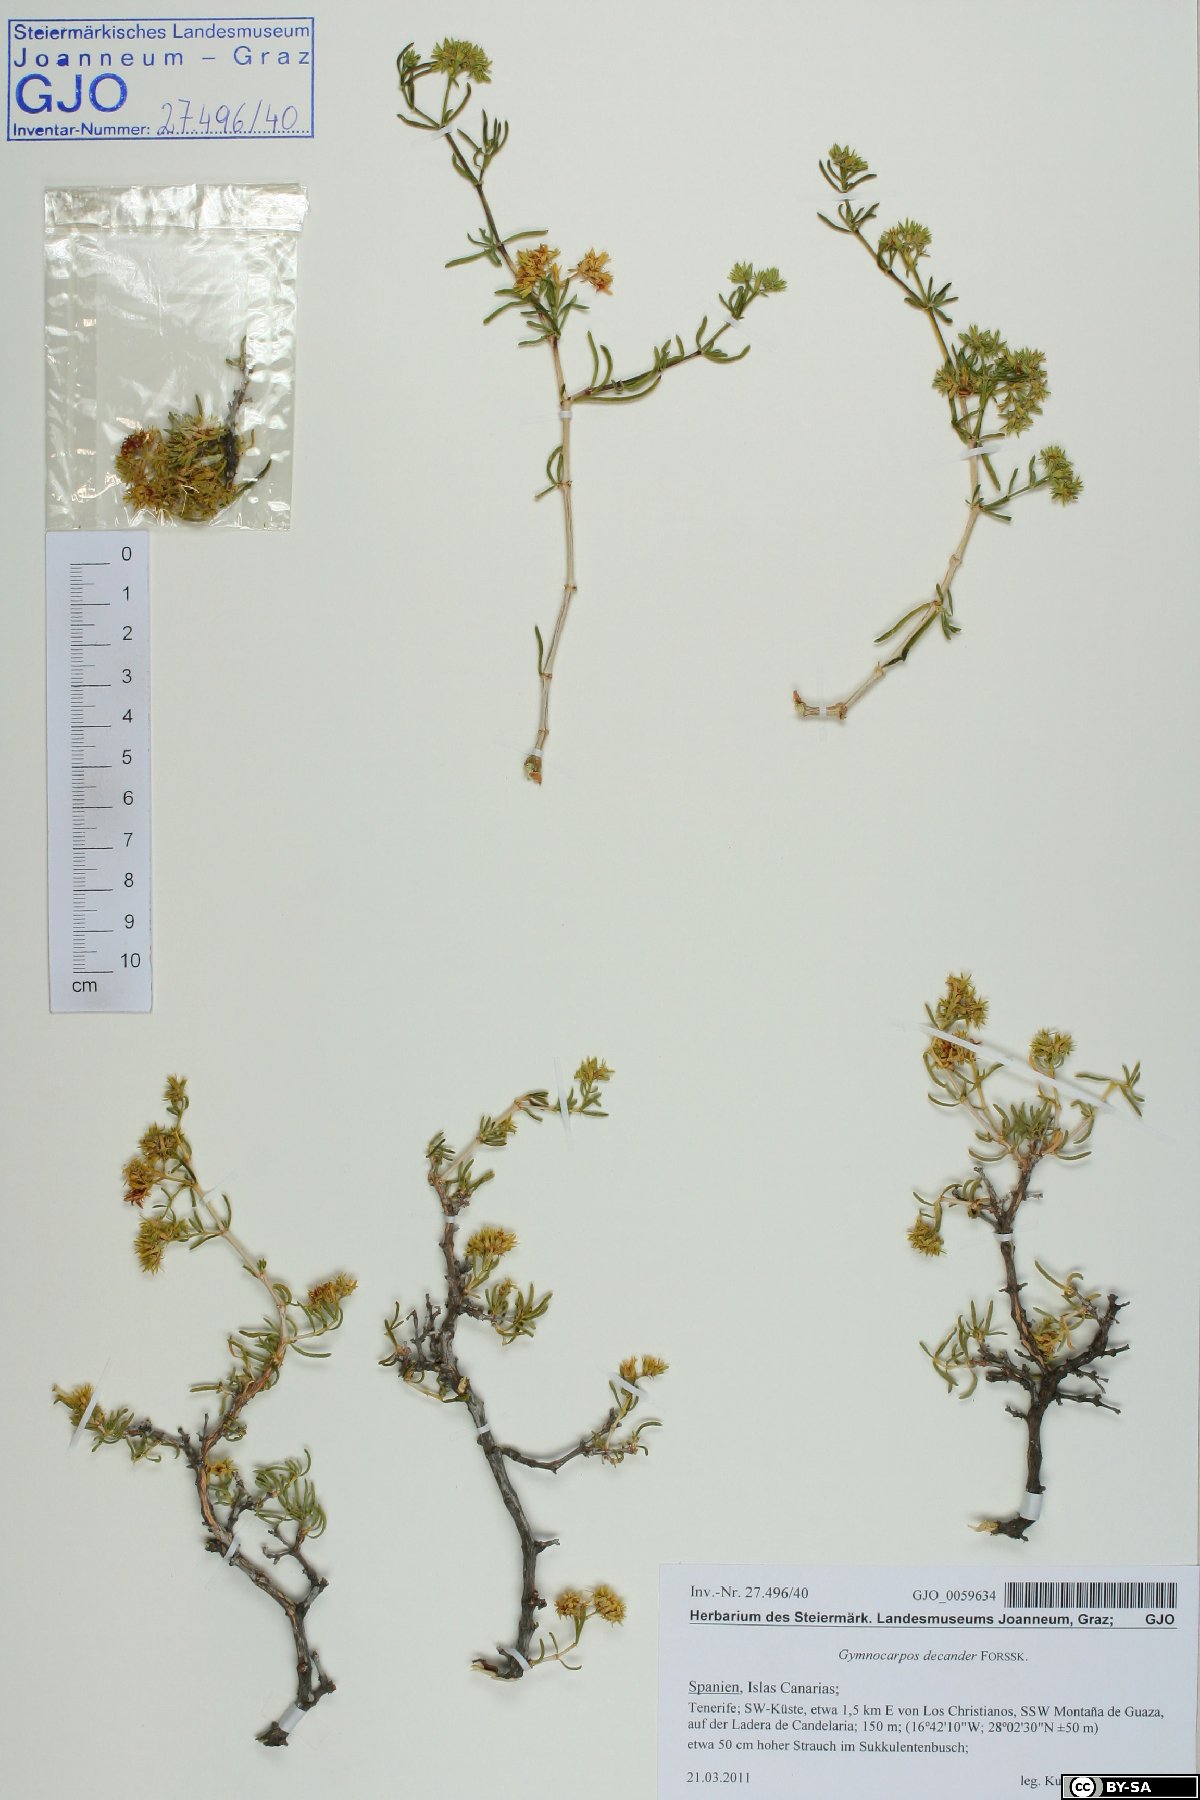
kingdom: Plantae
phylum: Tracheophyta
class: Magnoliopsida
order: Caryophyllales
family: Caryophyllaceae
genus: Gymnocarpos
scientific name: Gymnocarpos decandrus
